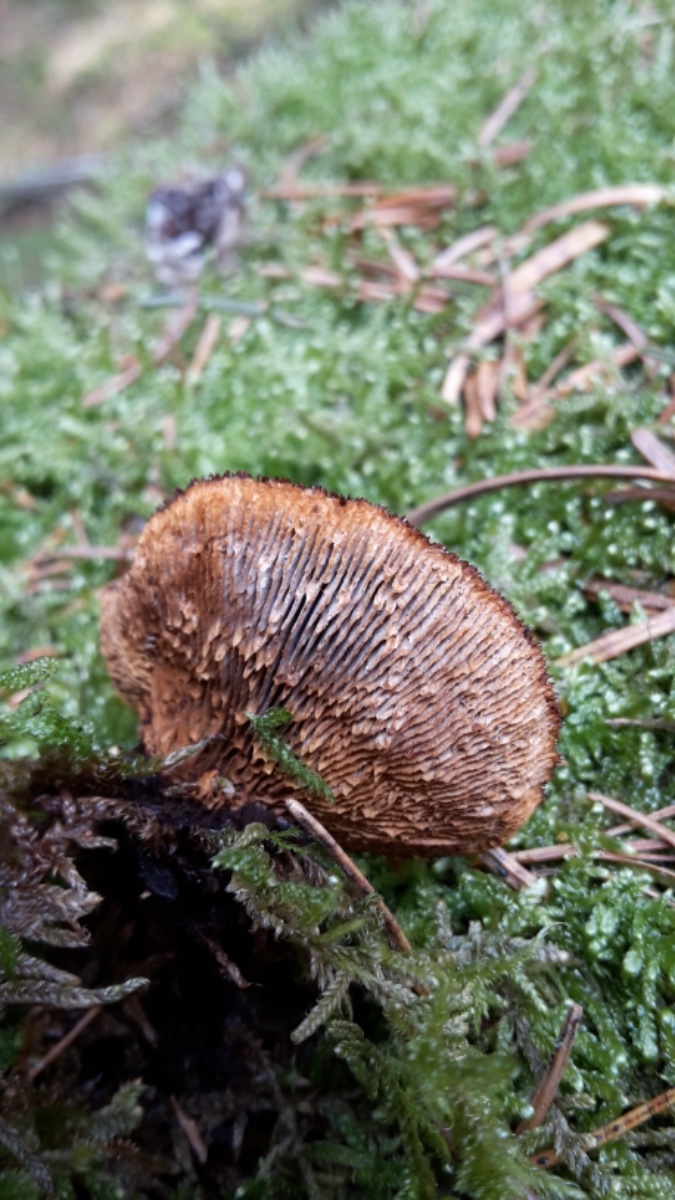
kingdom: Fungi
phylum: Basidiomycota
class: Agaricomycetes
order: Gloeophyllales
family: Gloeophyllaceae
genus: Gloeophyllum
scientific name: Gloeophyllum sepiarium
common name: fyrre-korkhat
